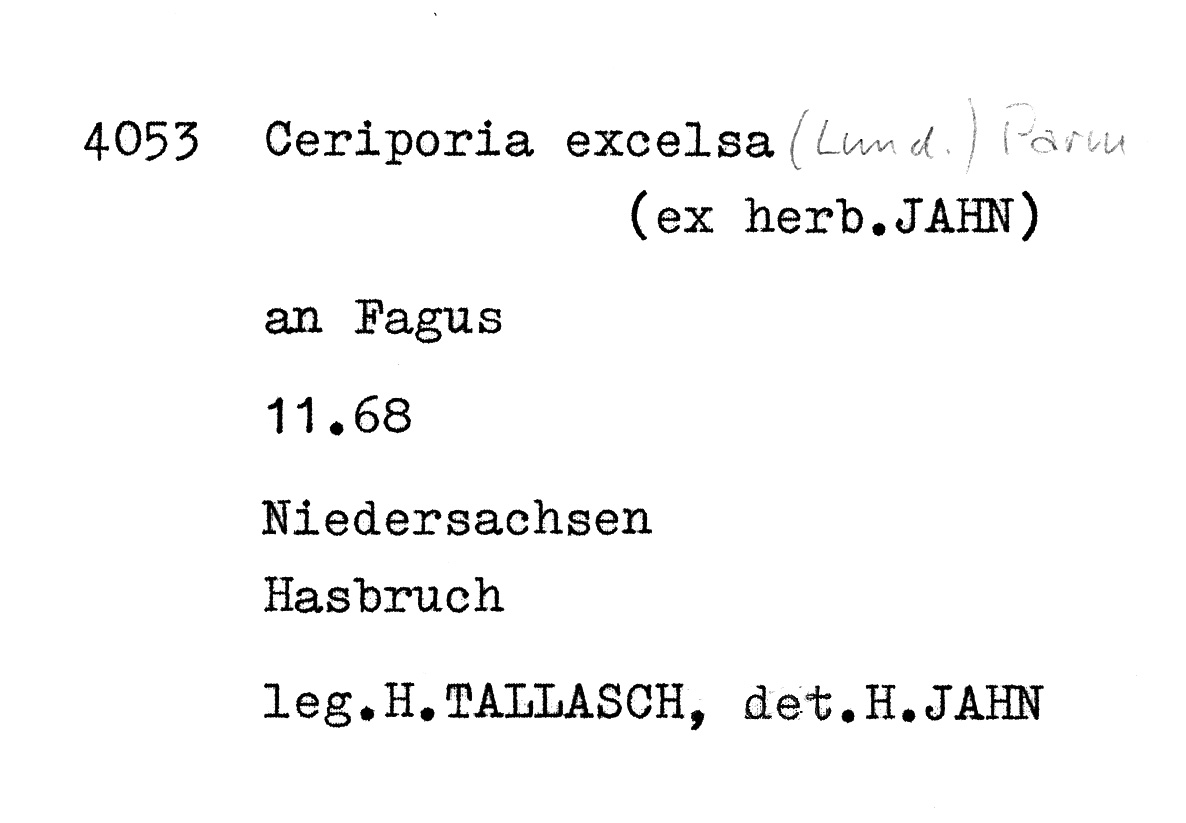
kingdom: Plantae
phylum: Tracheophyta
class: Magnoliopsida
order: Fagales
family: Fagaceae
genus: Fagus
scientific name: Fagus sylvatica
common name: Beech
